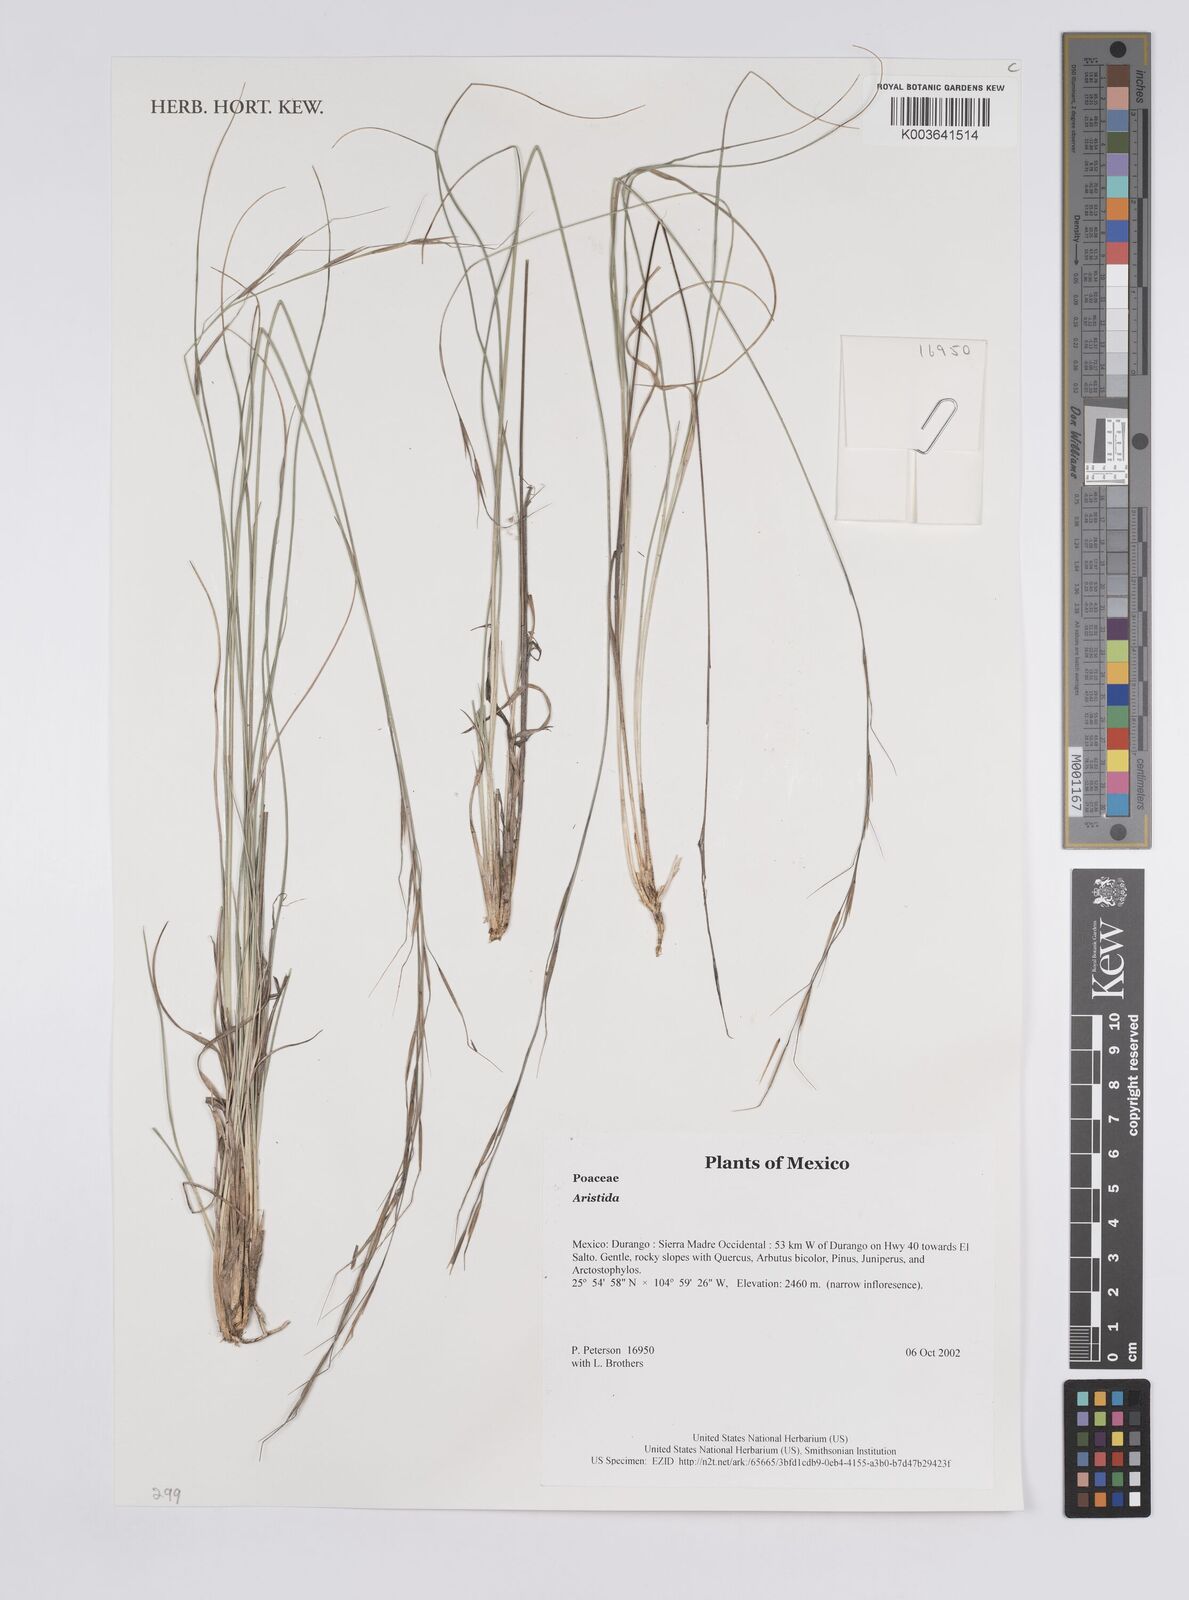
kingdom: Plantae
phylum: Tracheophyta
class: Liliopsida
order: Poales
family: Poaceae
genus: Aristida
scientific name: Aristida
